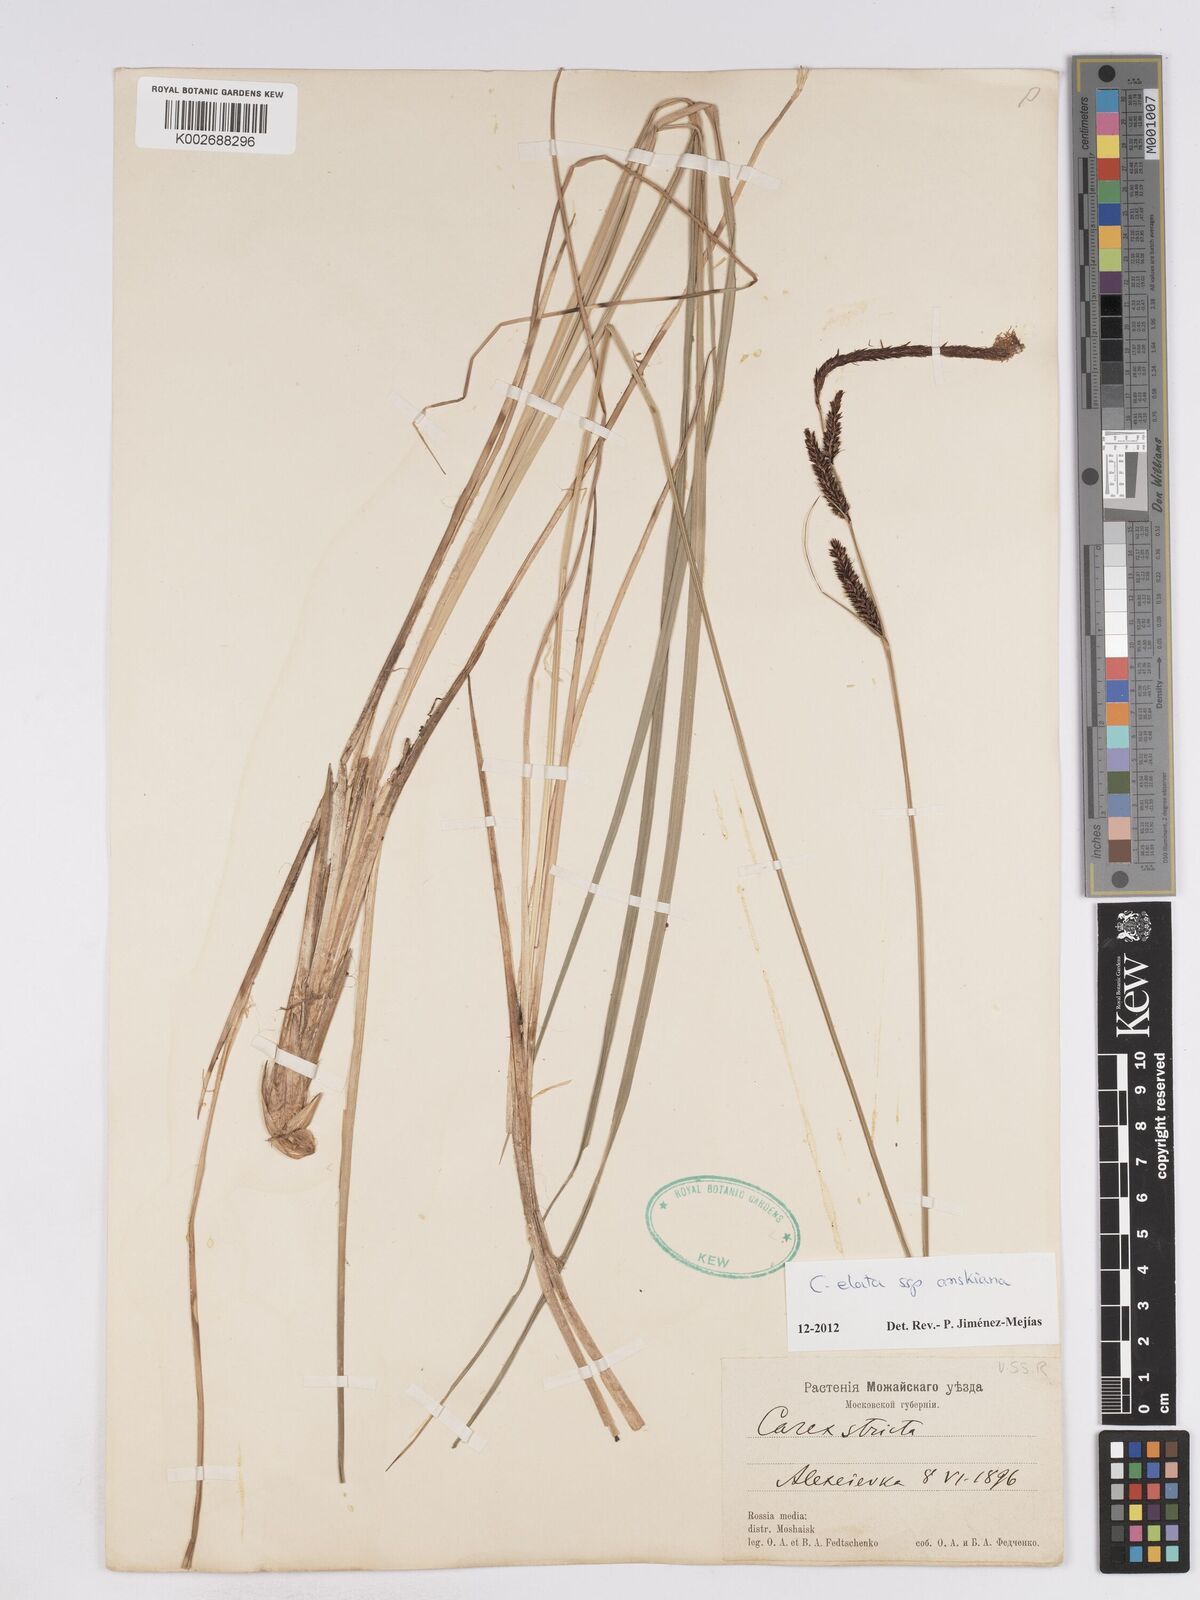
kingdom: Plantae
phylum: Tracheophyta
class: Liliopsida
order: Poales
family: Cyperaceae
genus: Carex
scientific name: Carex elata
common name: Tufted sedge
